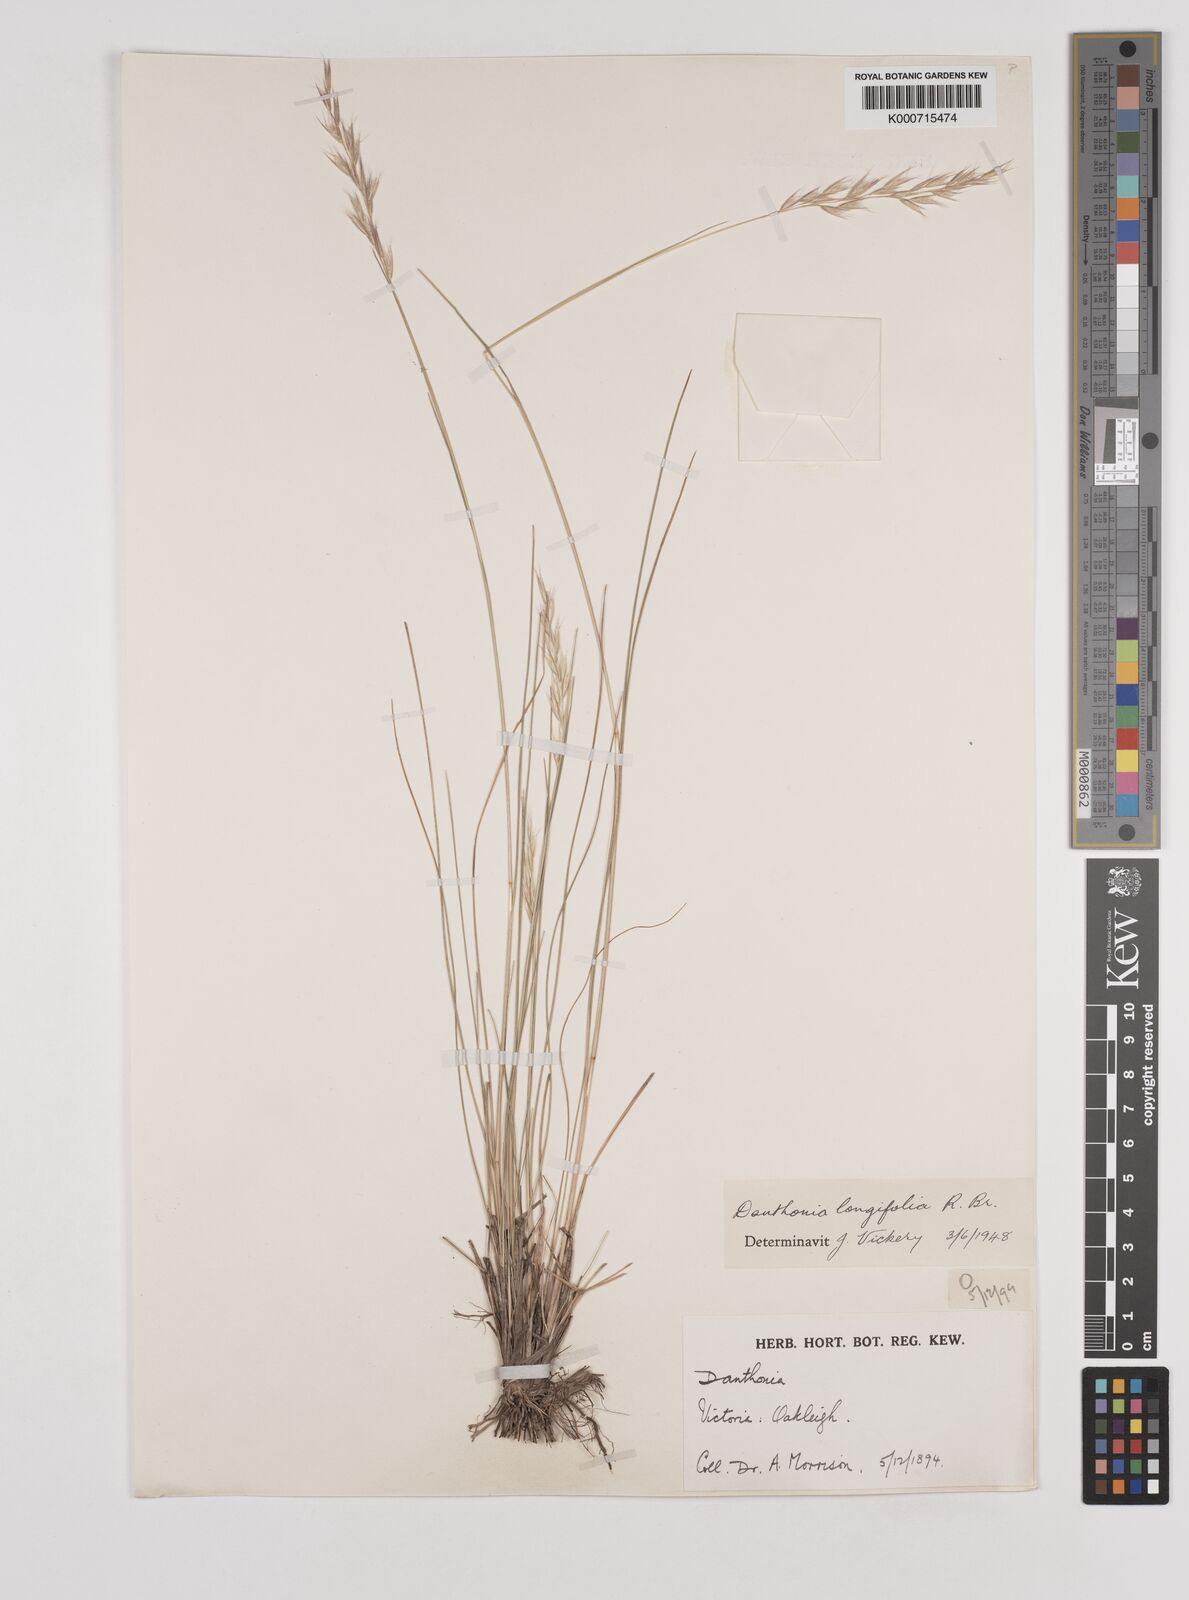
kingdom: Plantae
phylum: Tracheophyta
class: Liliopsida
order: Poales
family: Poaceae
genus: Rytidosperma
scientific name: Rytidosperma longifolium
